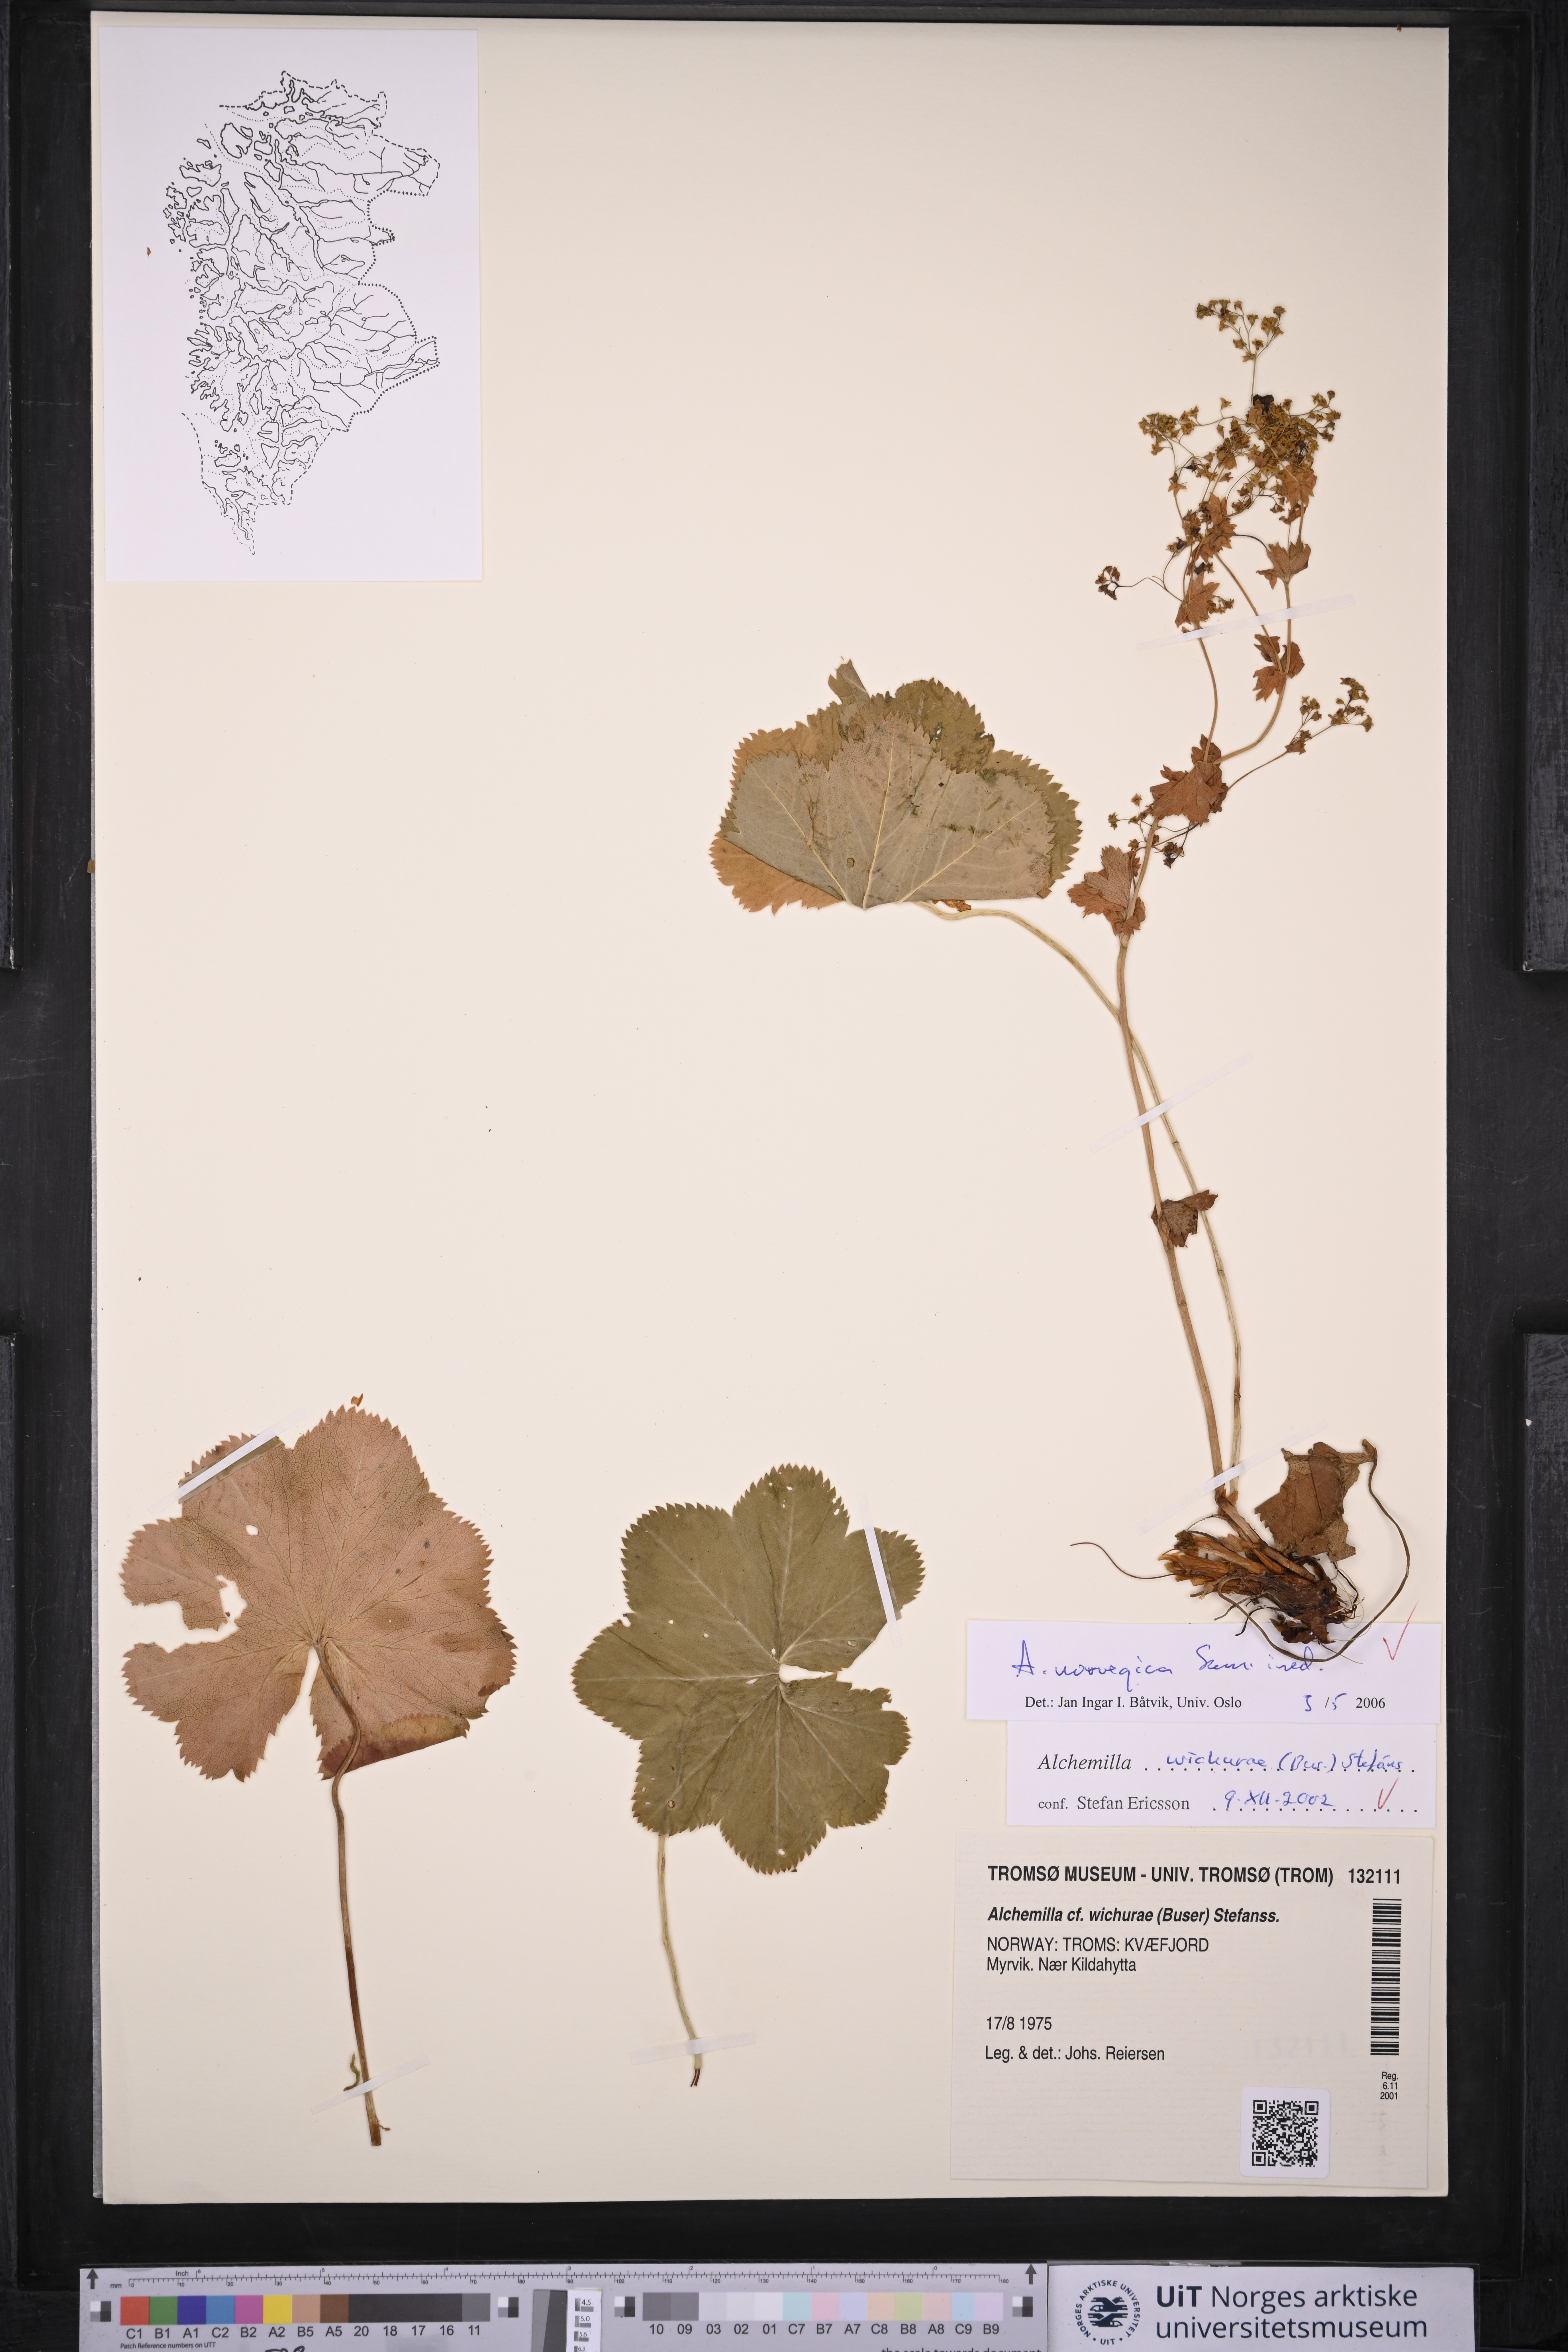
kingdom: Plantae
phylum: Tracheophyta
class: Magnoliopsida
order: Rosales
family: Rosaceae
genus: Alchemilla
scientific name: Alchemilla norvegica
